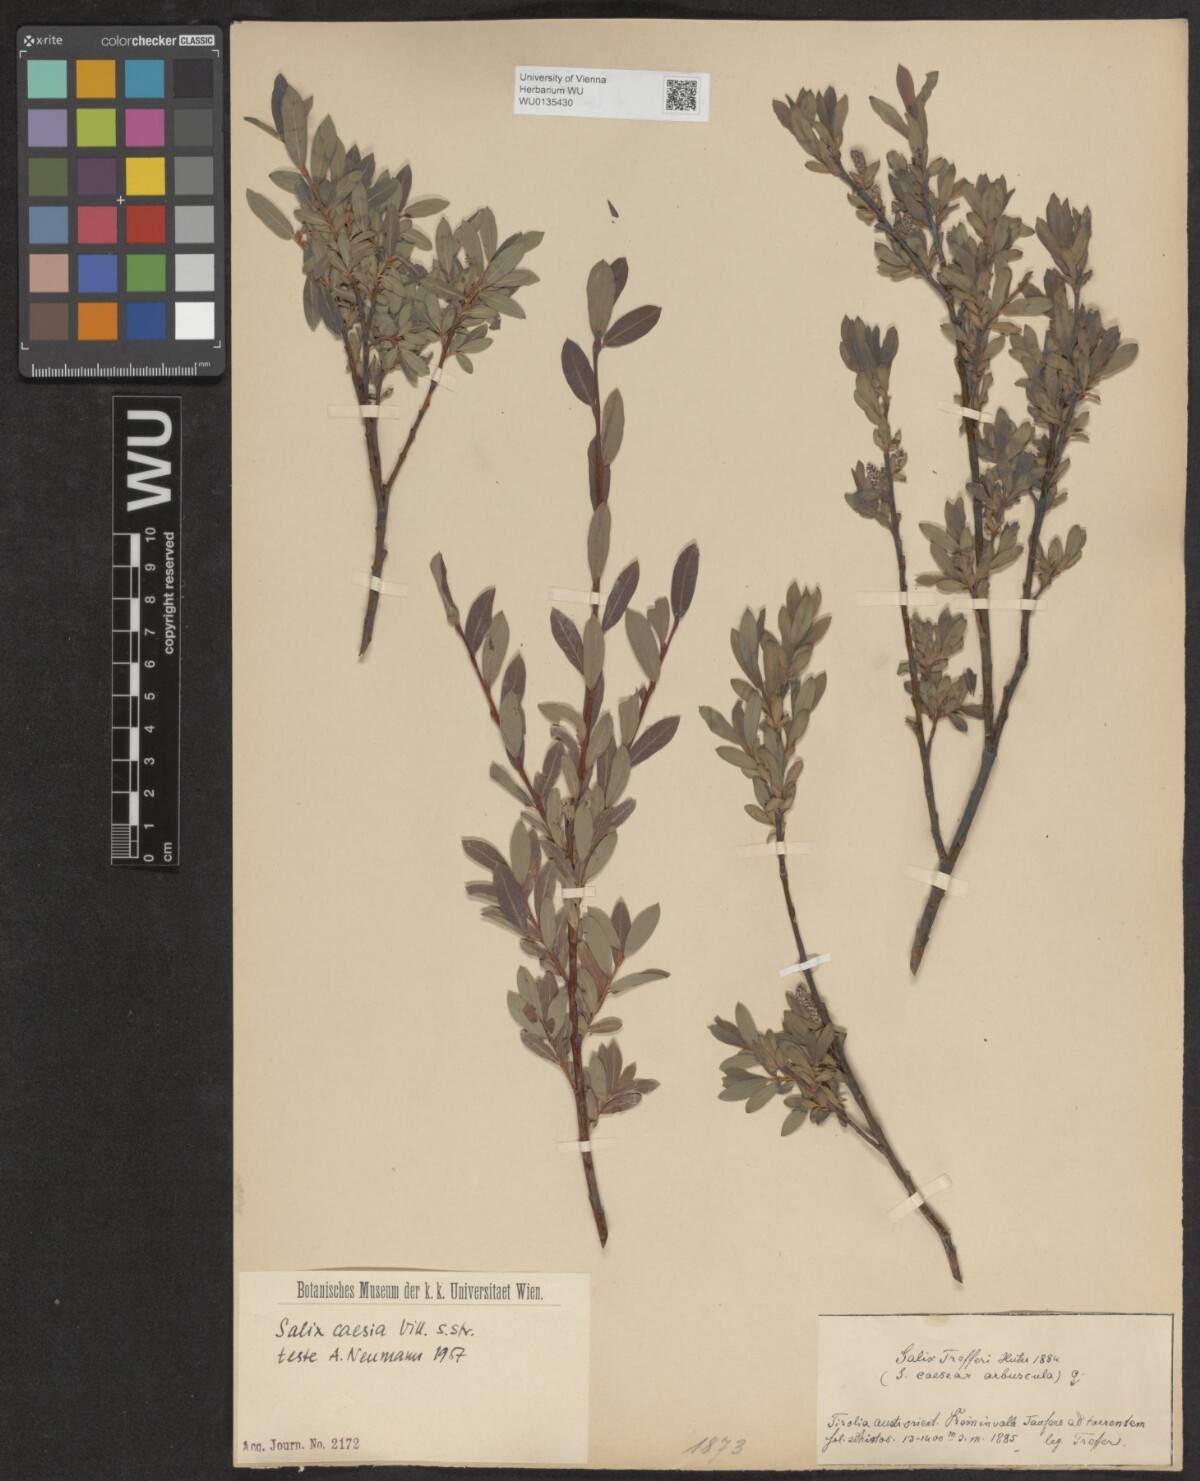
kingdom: Plantae
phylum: Tracheophyta
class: Magnoliopsida
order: Malpighiales
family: Salicaceae
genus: Salix
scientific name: Salix caesia
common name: Blue willow
